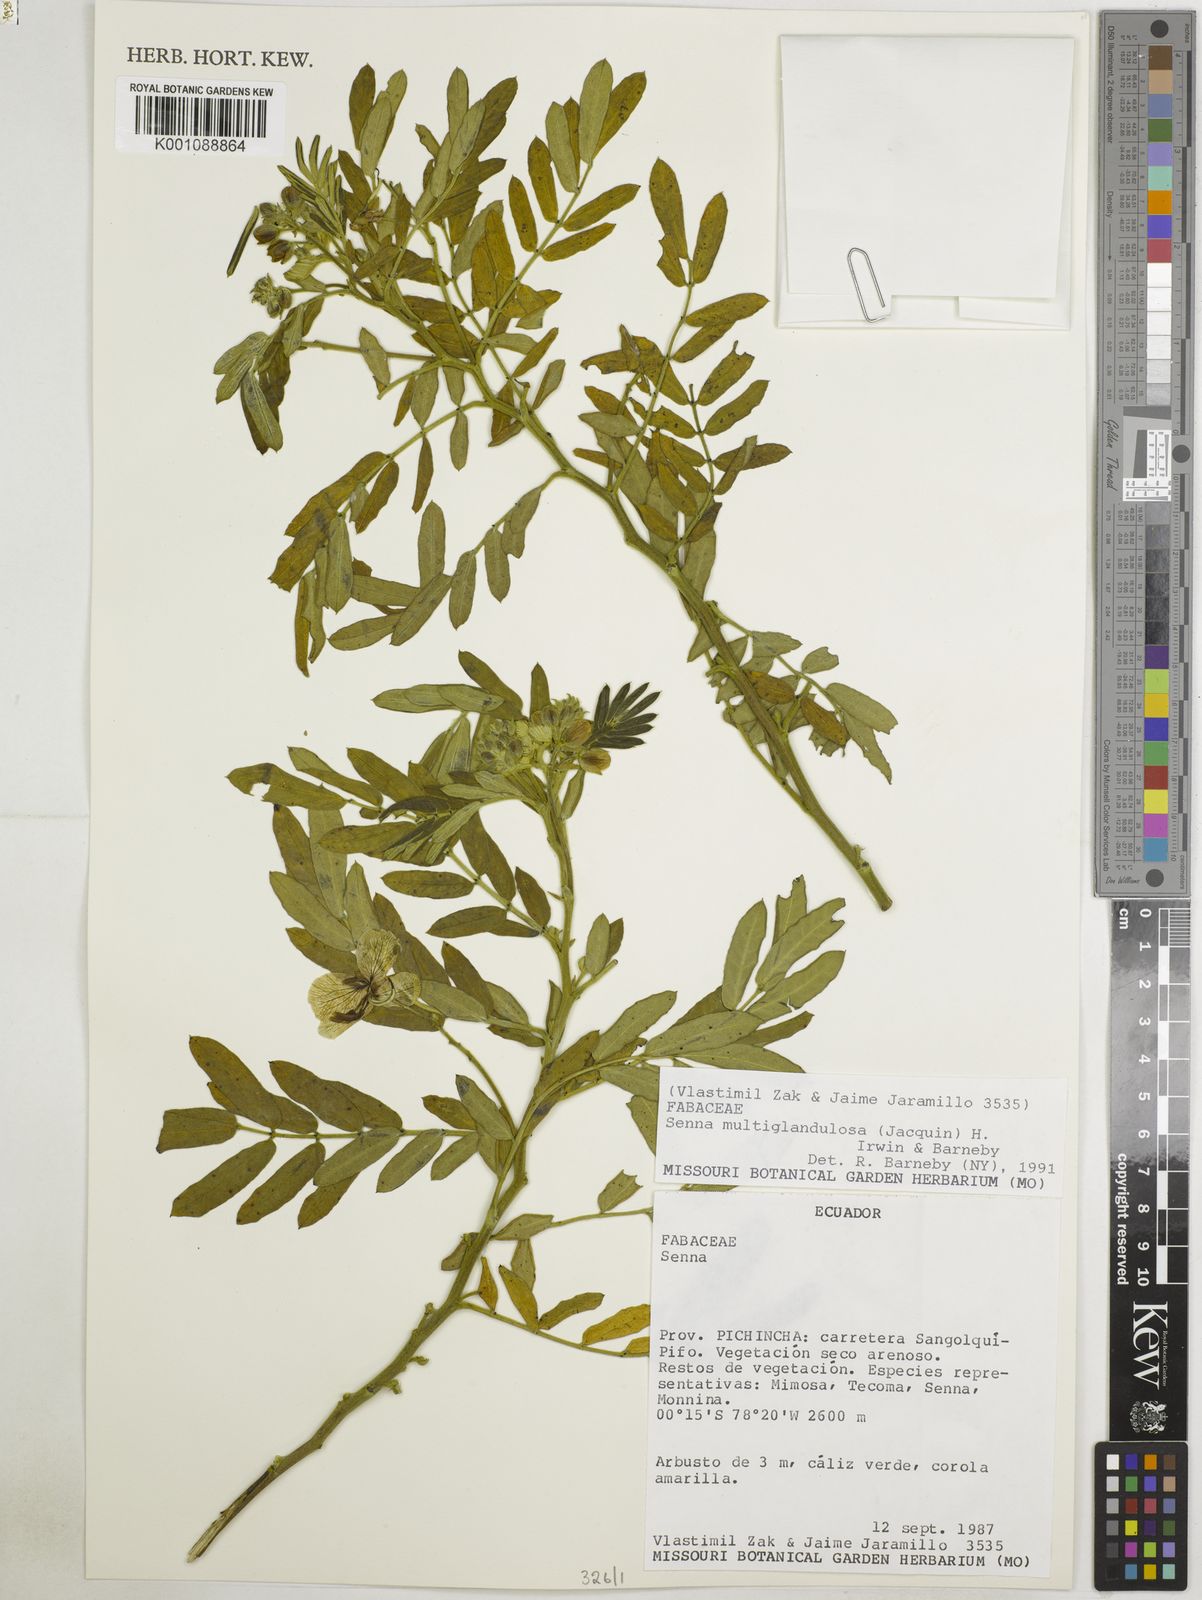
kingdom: Plantae
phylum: Tracheophyta
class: Magnoliopsida
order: Fabales
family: Fabaceae
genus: Senna
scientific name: Senna multiglandulosa
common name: Glandular senna
